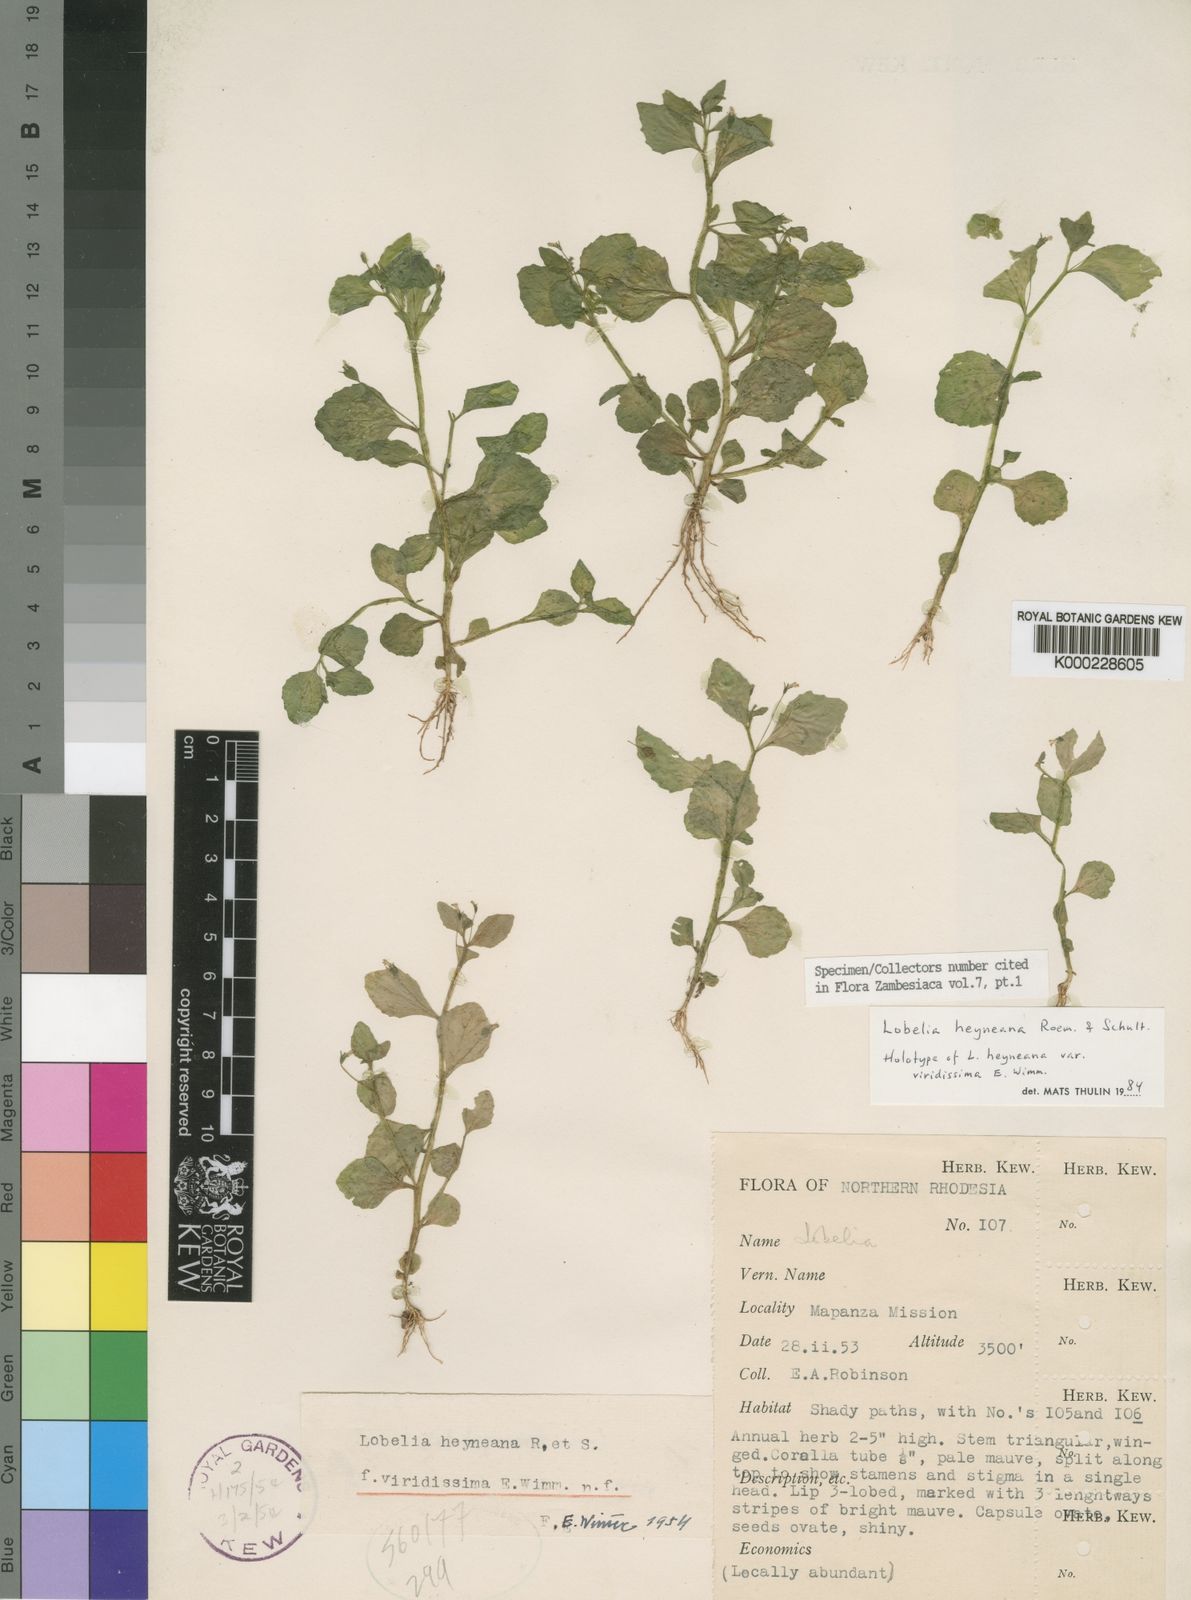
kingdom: Plantae
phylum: Tracheophyta
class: Magnoliopsida
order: Asterales
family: Campanulaceae
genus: Lobelia
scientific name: Lobelia heyneana
